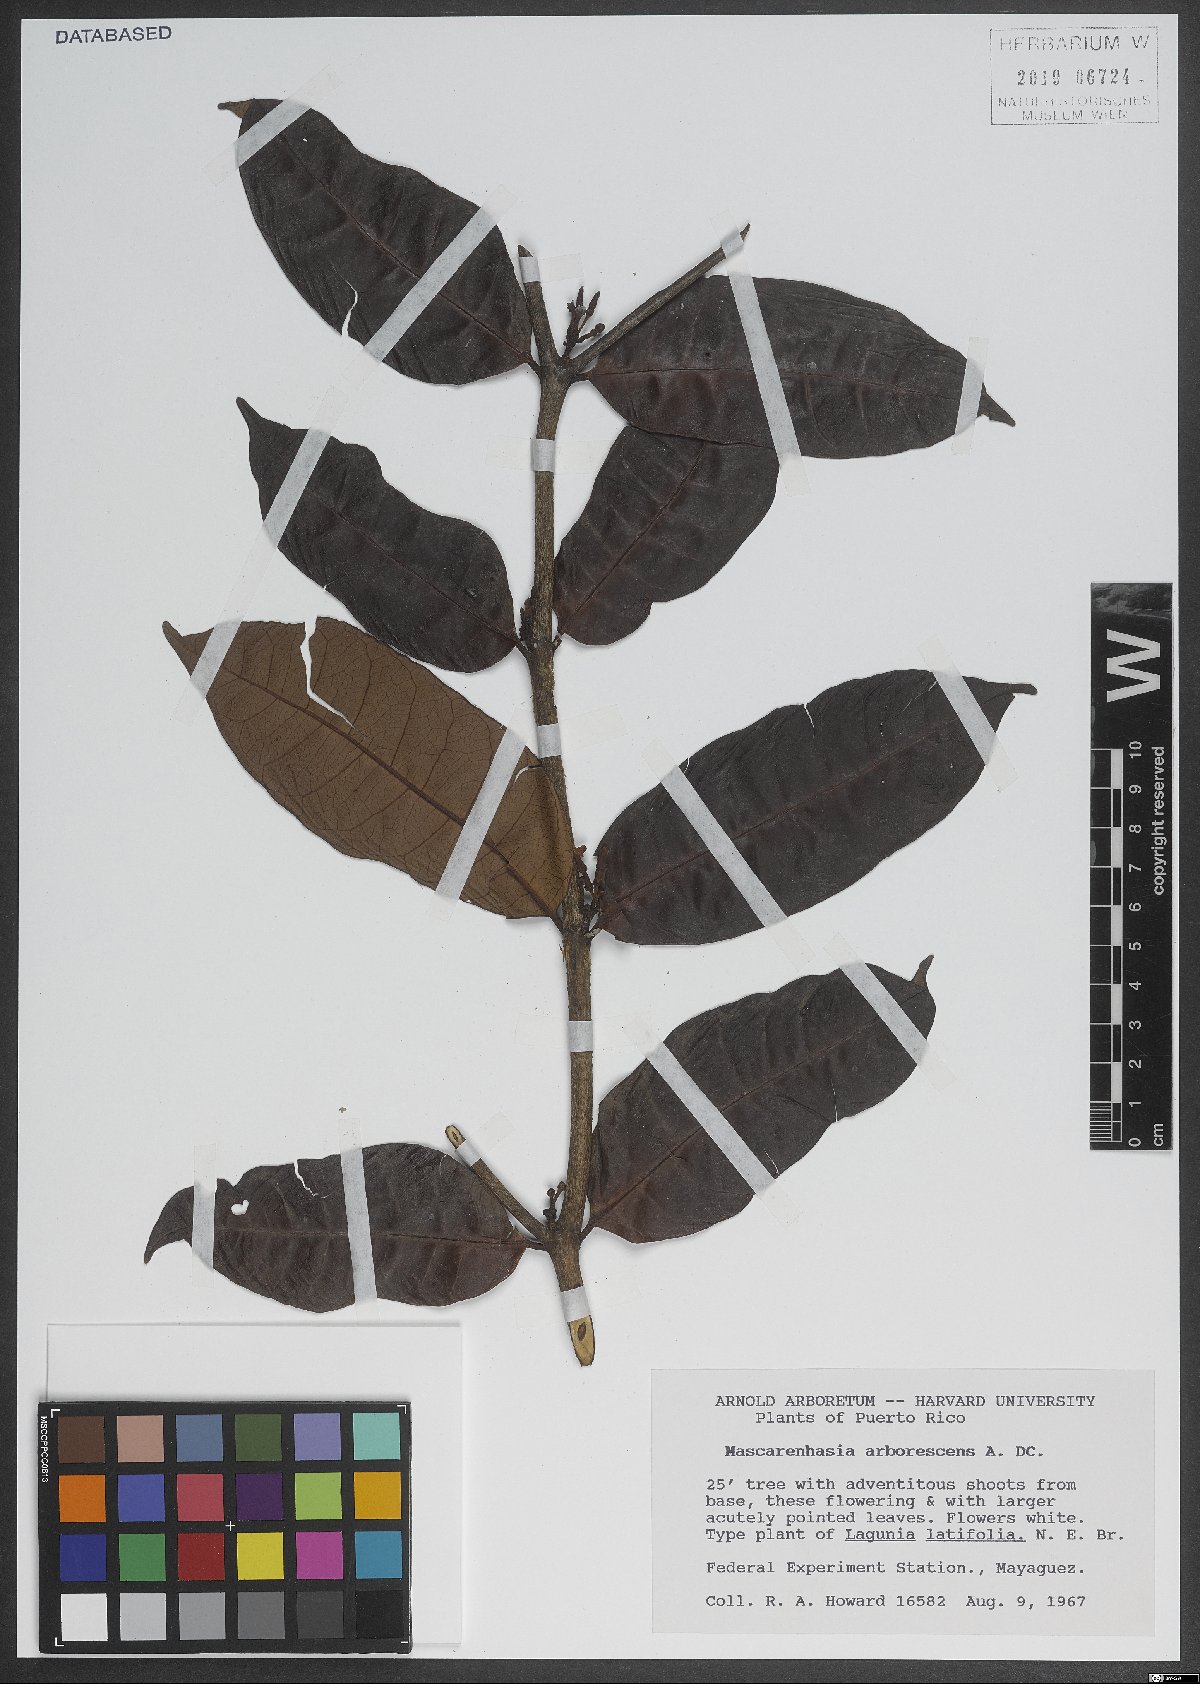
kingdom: Plantae
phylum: Tracheophyta
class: Magnoliopsida
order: Gentianales
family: Apocynaceae
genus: Mascarenhasia
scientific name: Mascarenhasia arborescens
